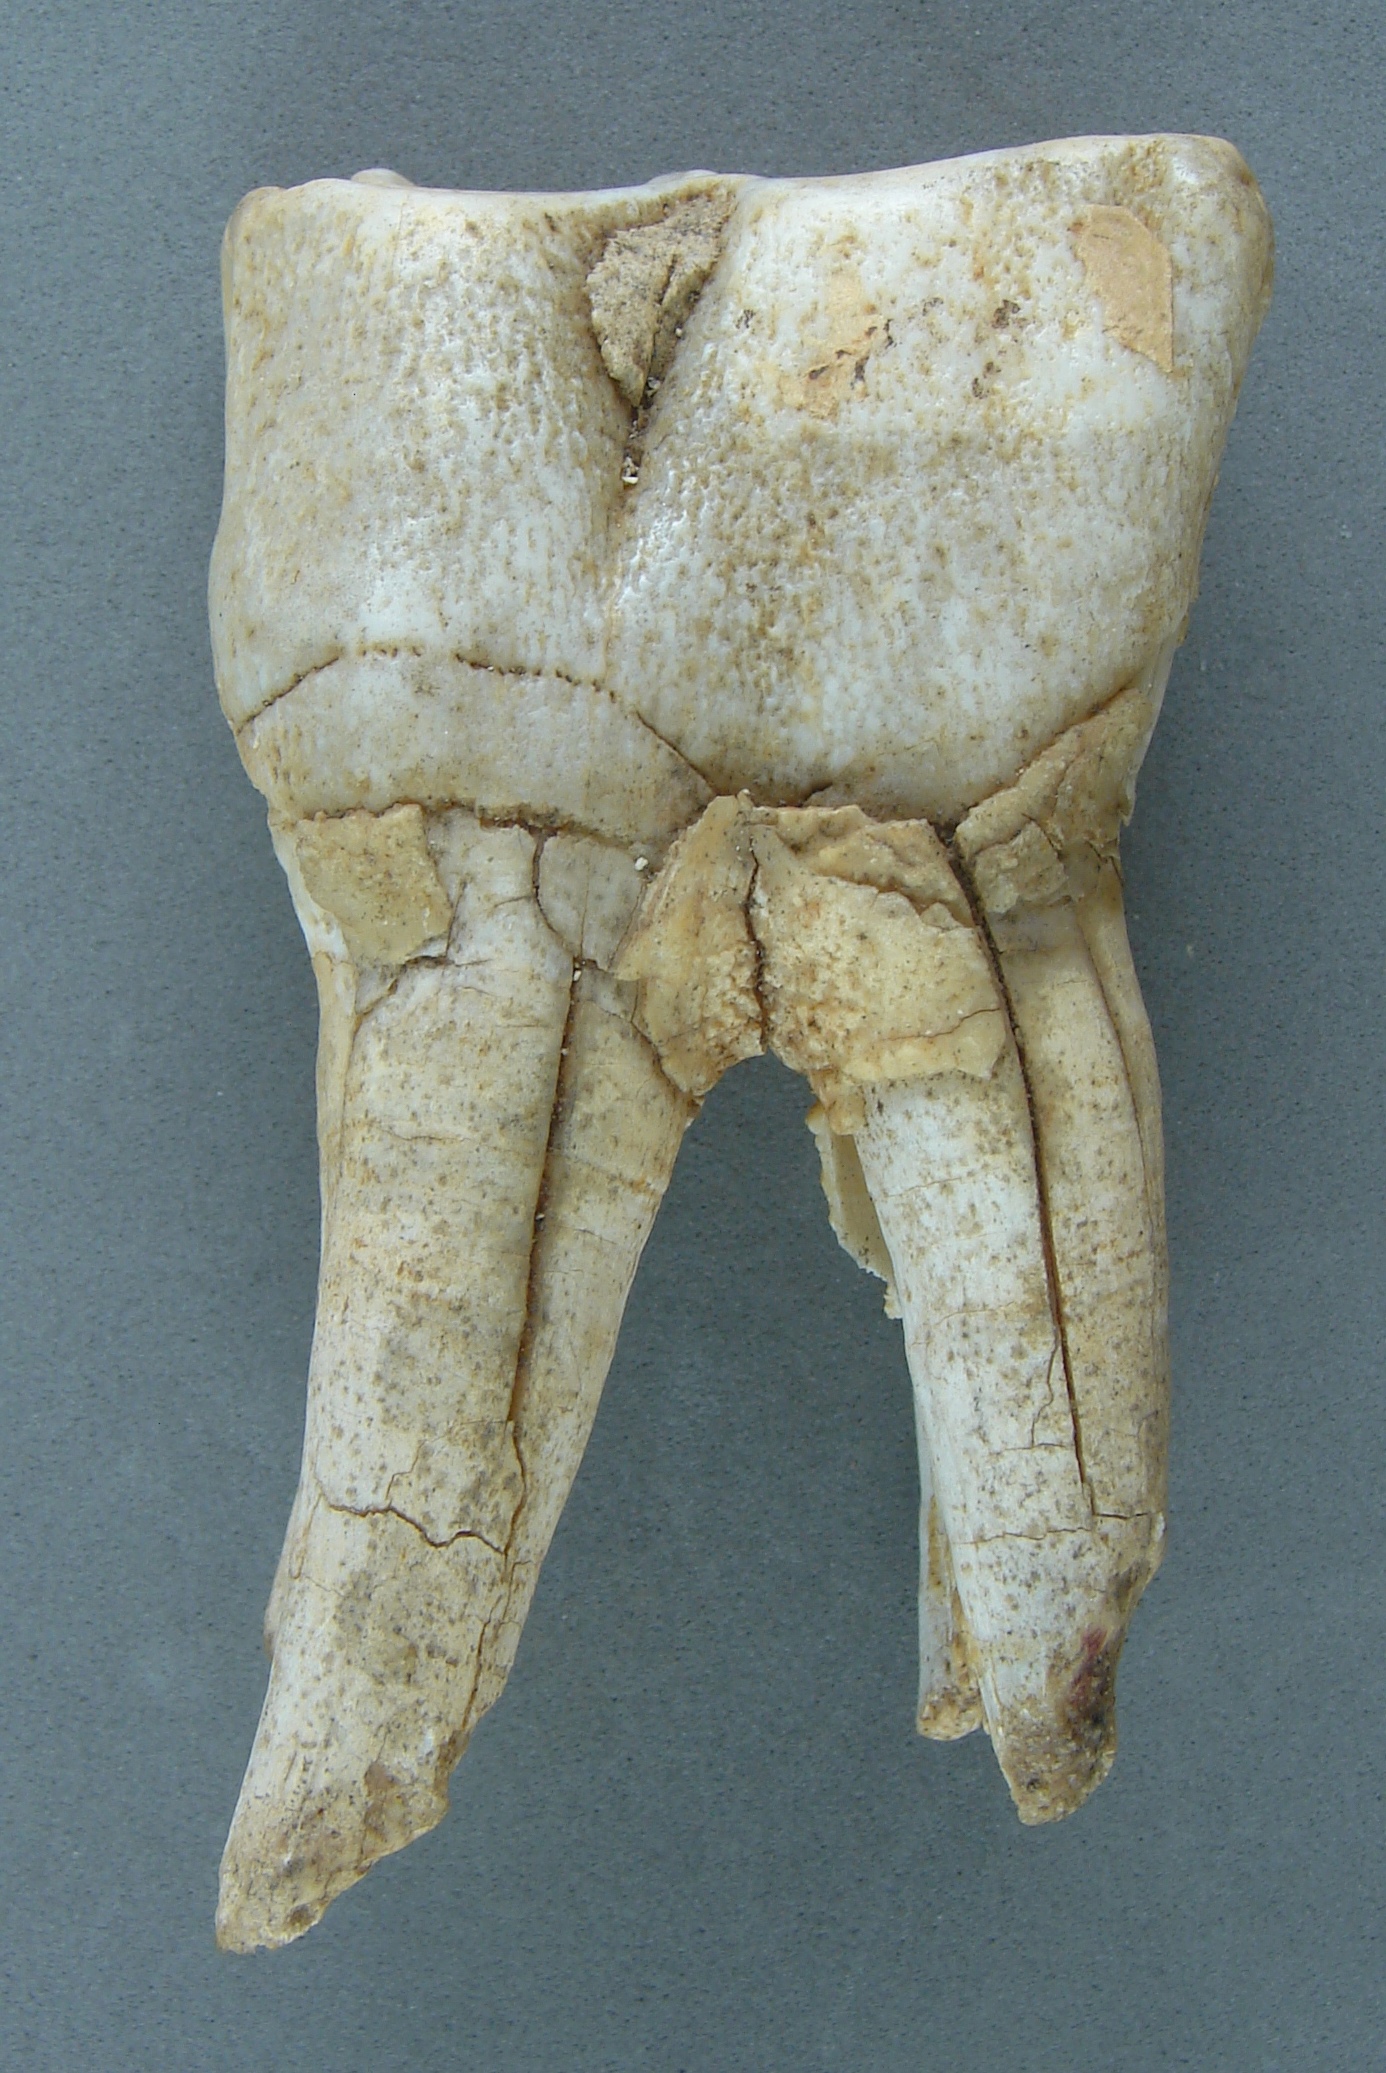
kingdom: Animalia
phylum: Chordata
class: Mammalia
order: Perissodactyla
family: Rhinocerotidae
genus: Rhinoceros
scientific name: Rhinoceros
